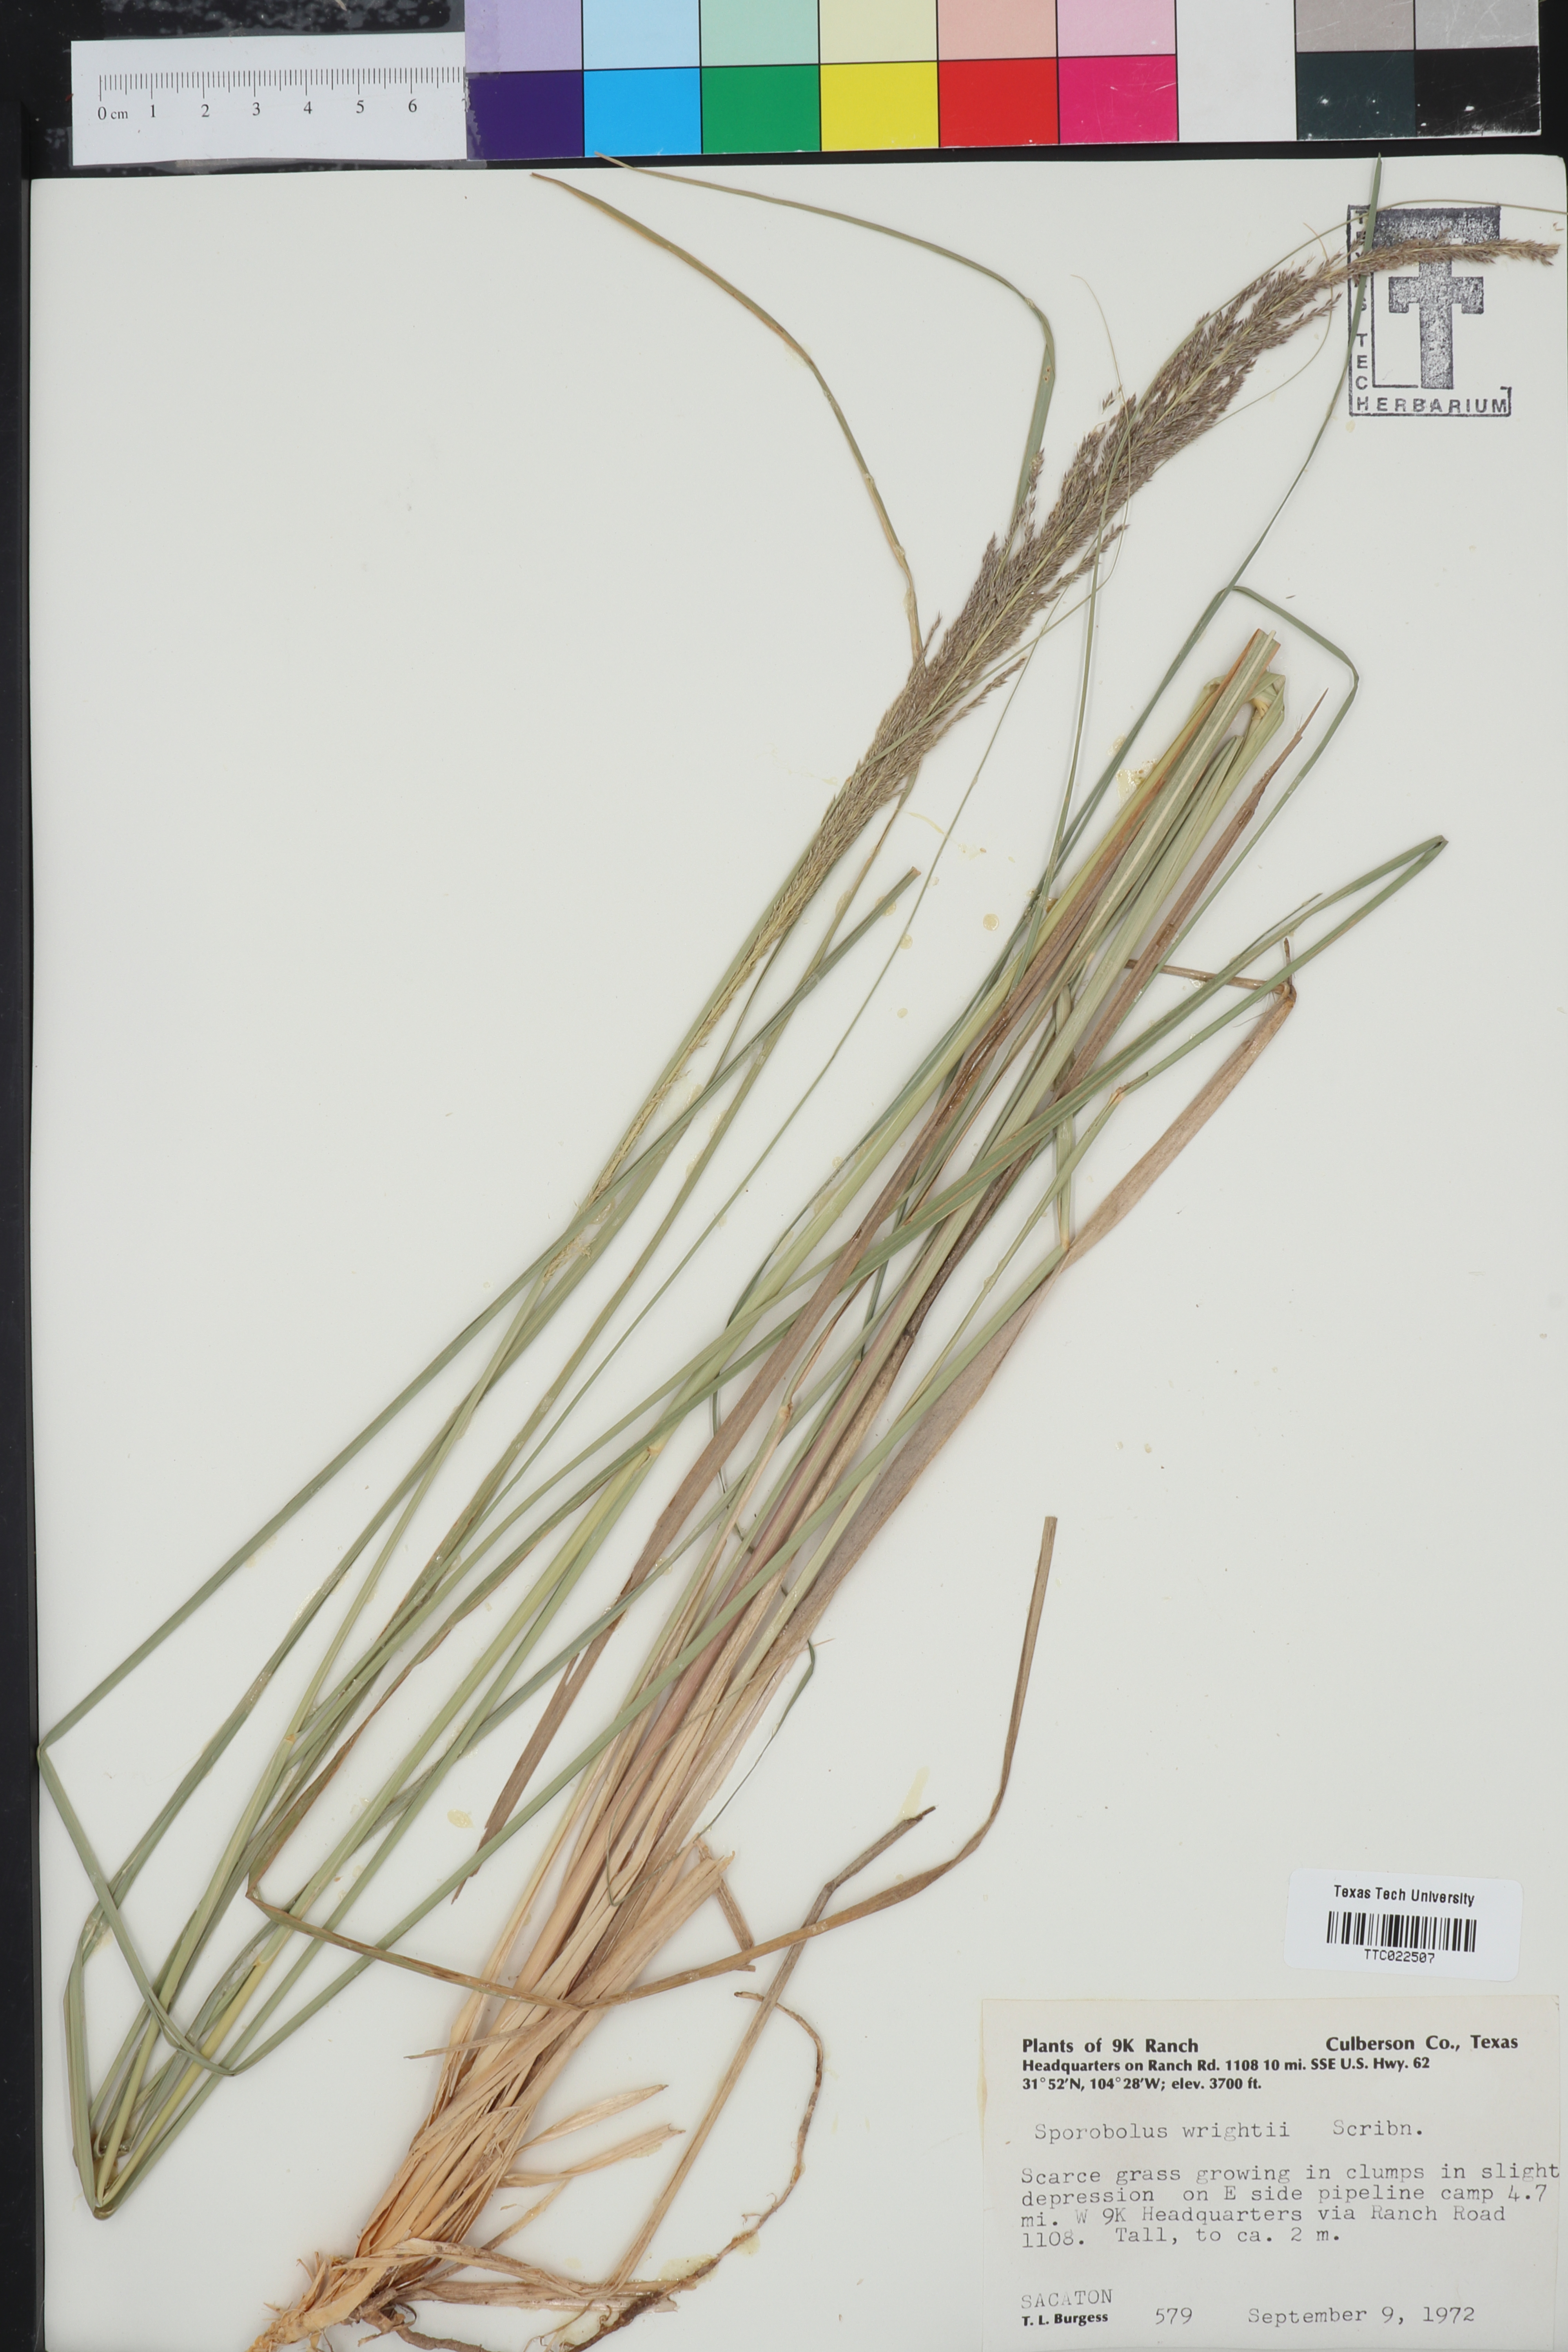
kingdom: Plantae
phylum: Tracheophyta
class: Liliopsida
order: Poales
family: Poaceae
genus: Sporobolus
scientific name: Sporobolus wrightii
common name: Big alkali sacaton
